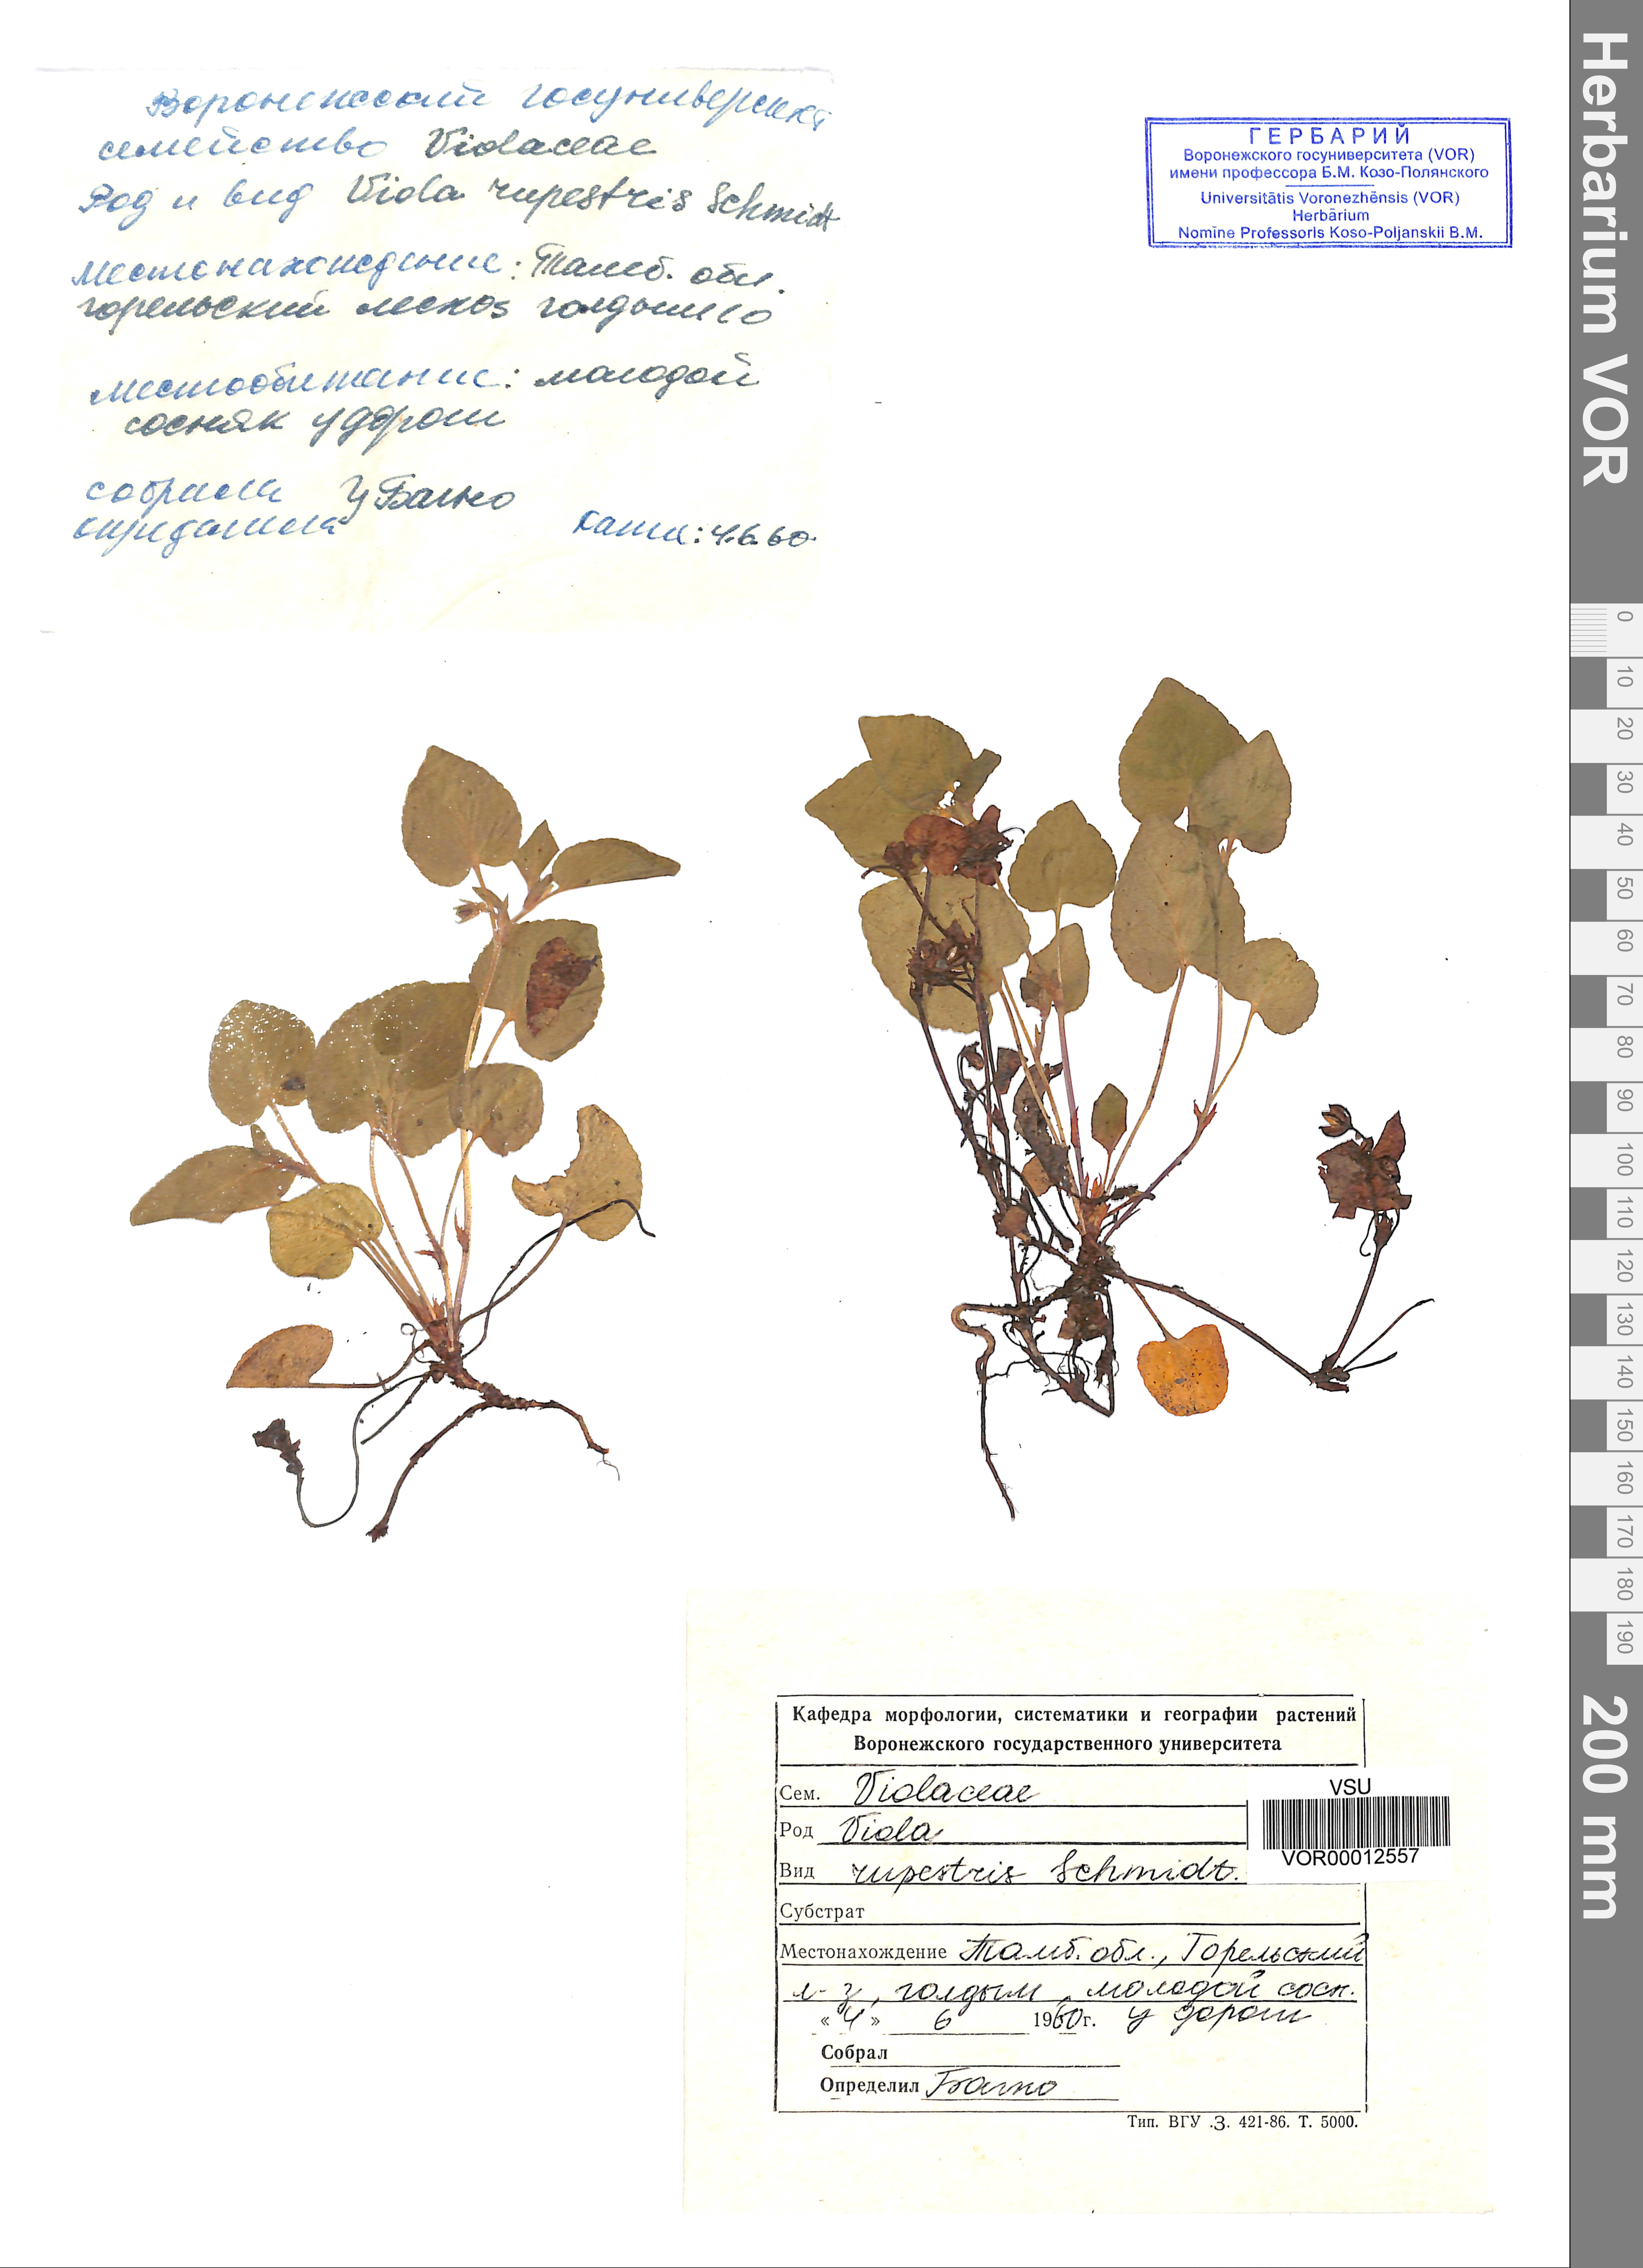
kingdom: Plantae
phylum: Tracheophyta
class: Magnoliopsida
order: Malpighiales
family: Violaceae
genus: Viola
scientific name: Viola rupestris
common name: Teesdale violet
